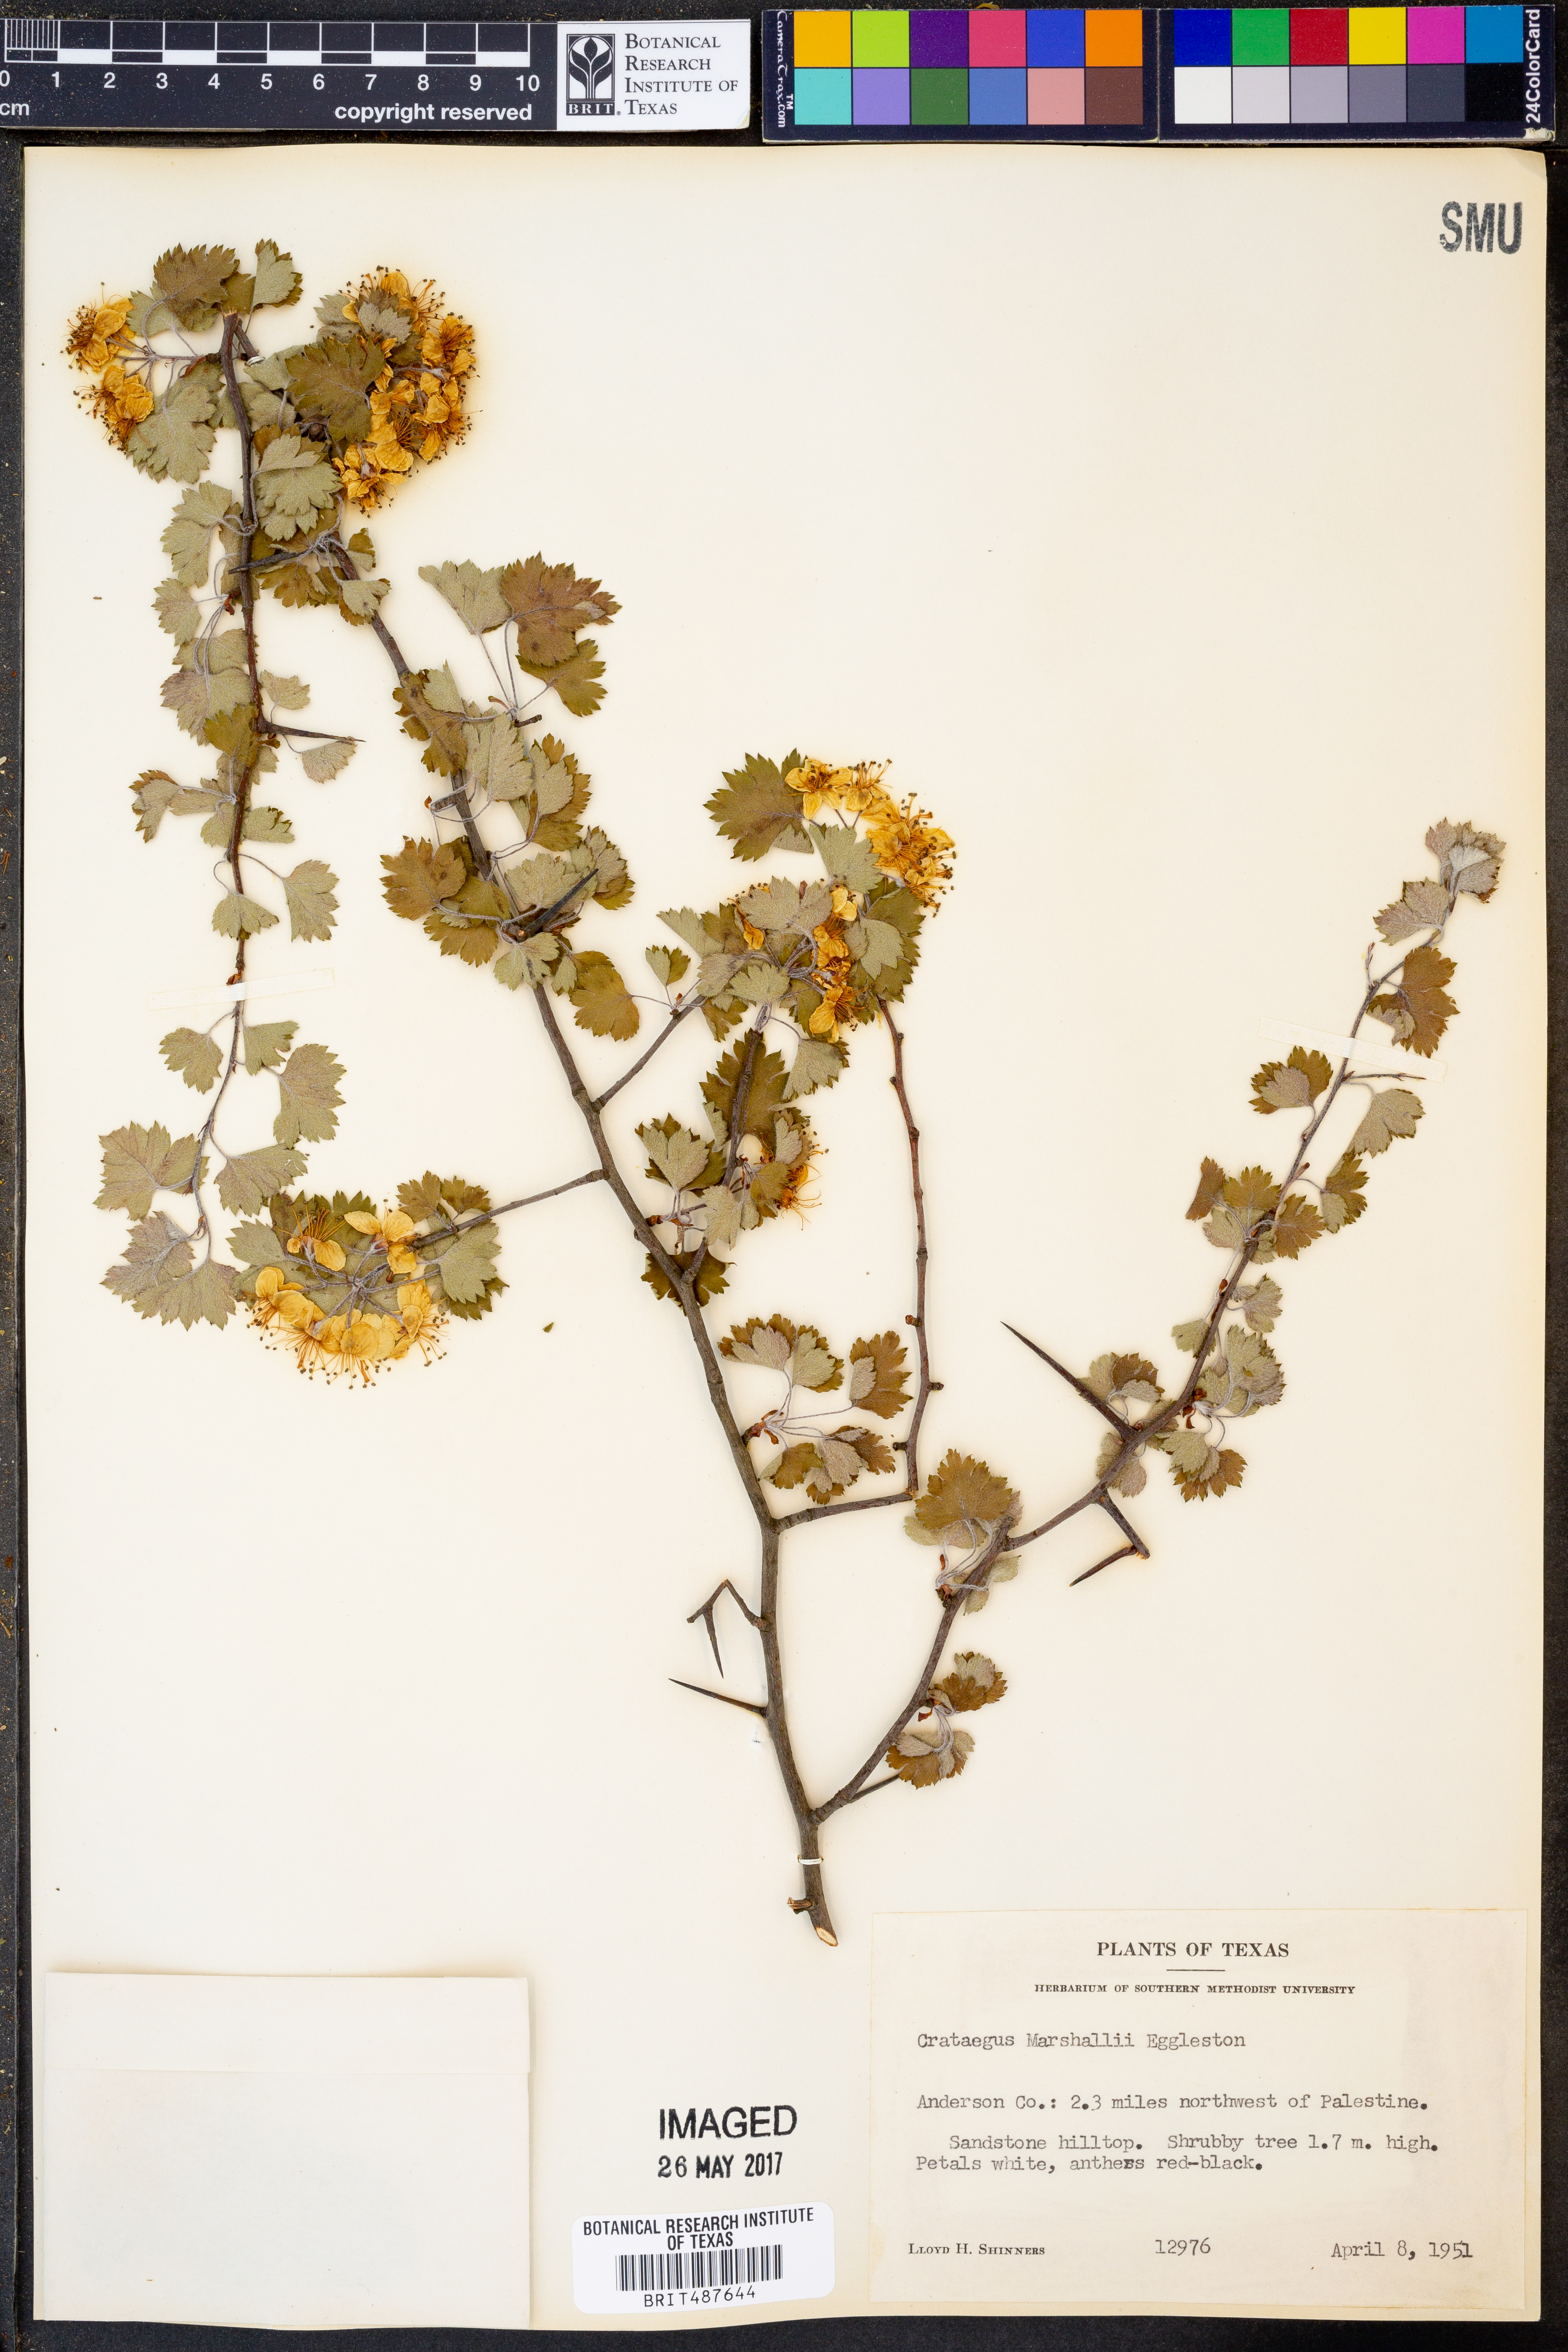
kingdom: Plantae
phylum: Tracheophyta
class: Magnoliopsida
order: Rosales
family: Rosaceae
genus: Crataegus
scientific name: Crataegus marshallii
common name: Parsley-hawthorn
